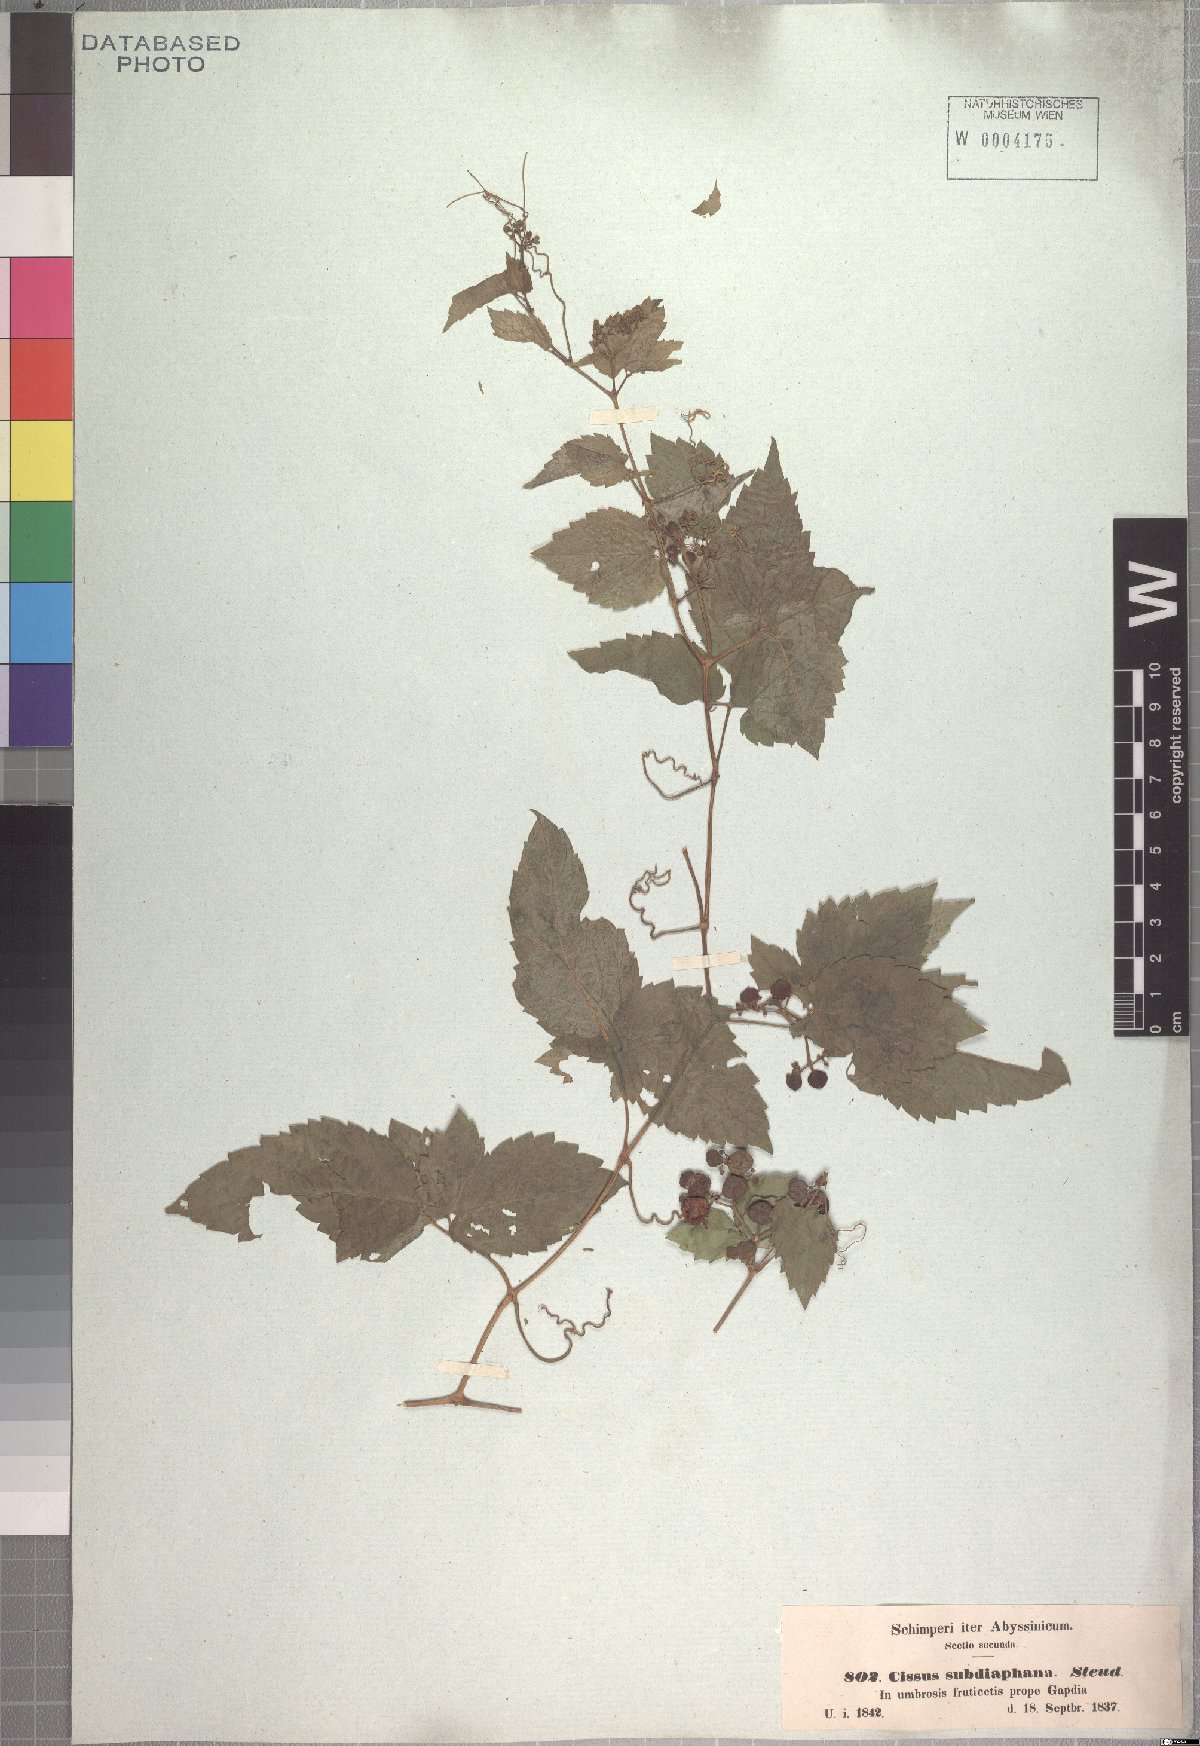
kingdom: Plantae
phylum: Tracheophyta
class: Magnoliopsida
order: Vitales
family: Vitaceae
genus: Afrocayratia
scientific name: Afrocayratia gracilis
